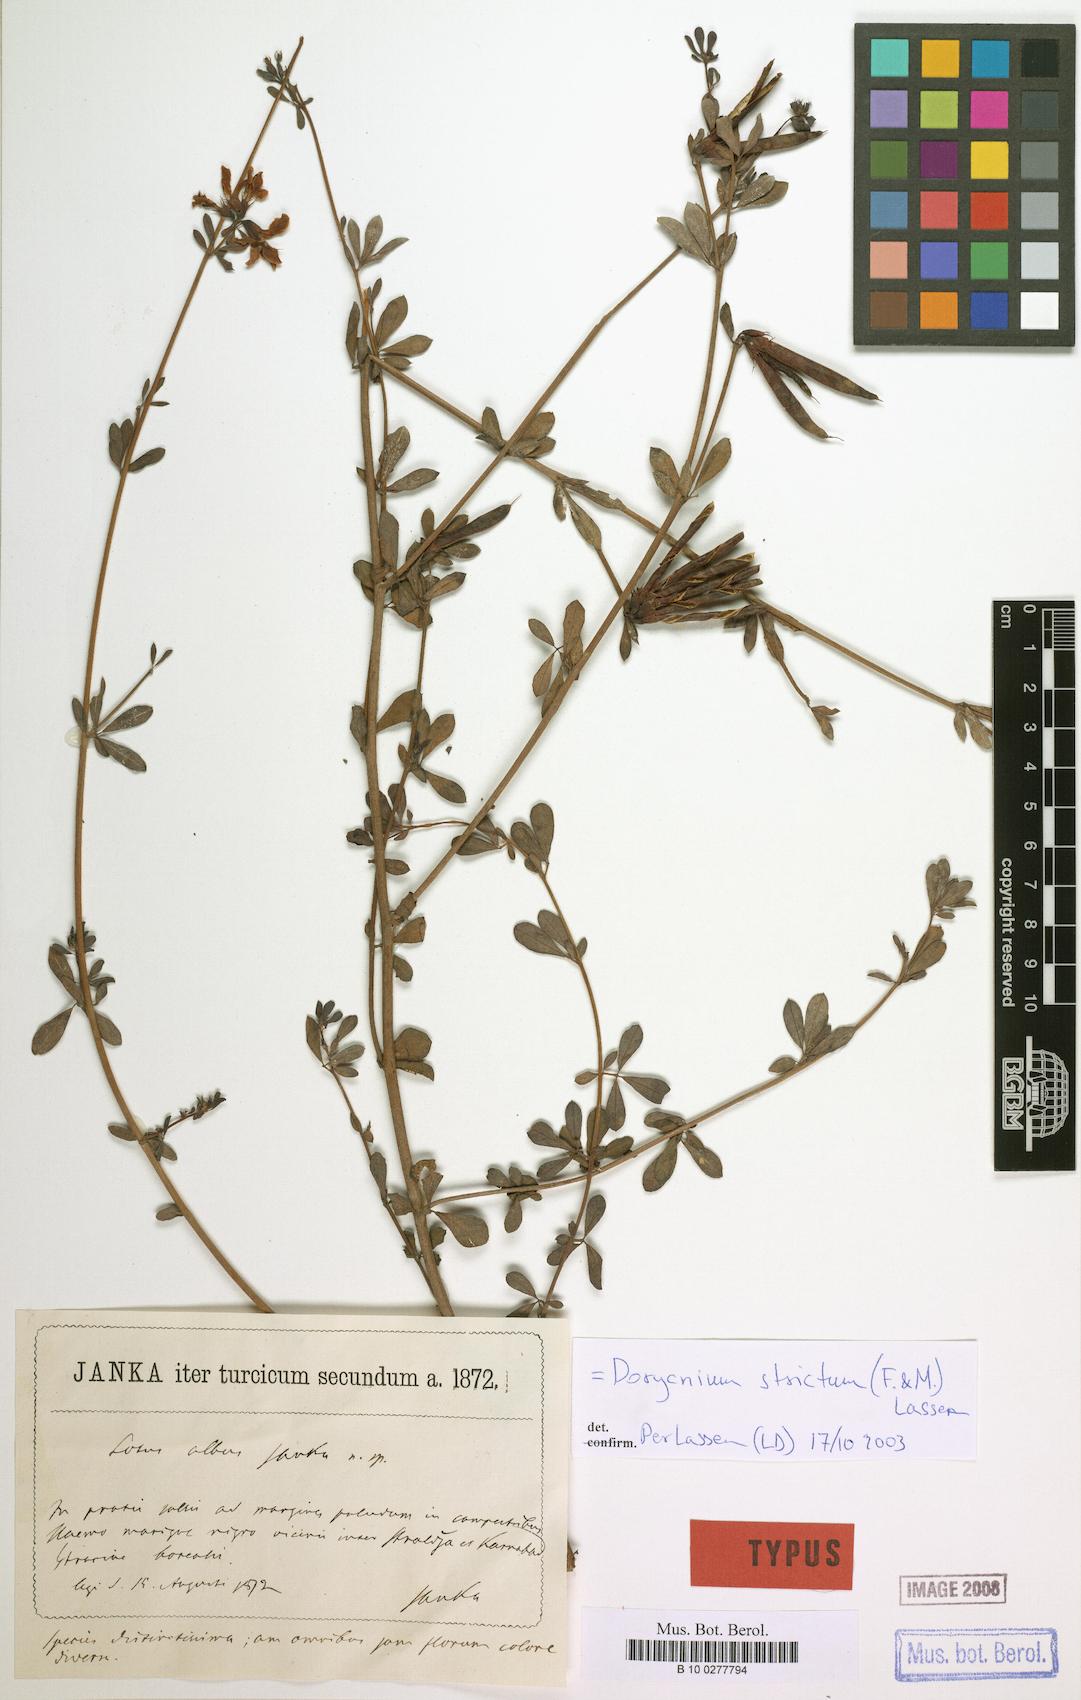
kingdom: Plantae
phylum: Tracheophyta
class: Magnoliopsida
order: Fabales
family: Fabaceae
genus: Lotus
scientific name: Lotus strictus
